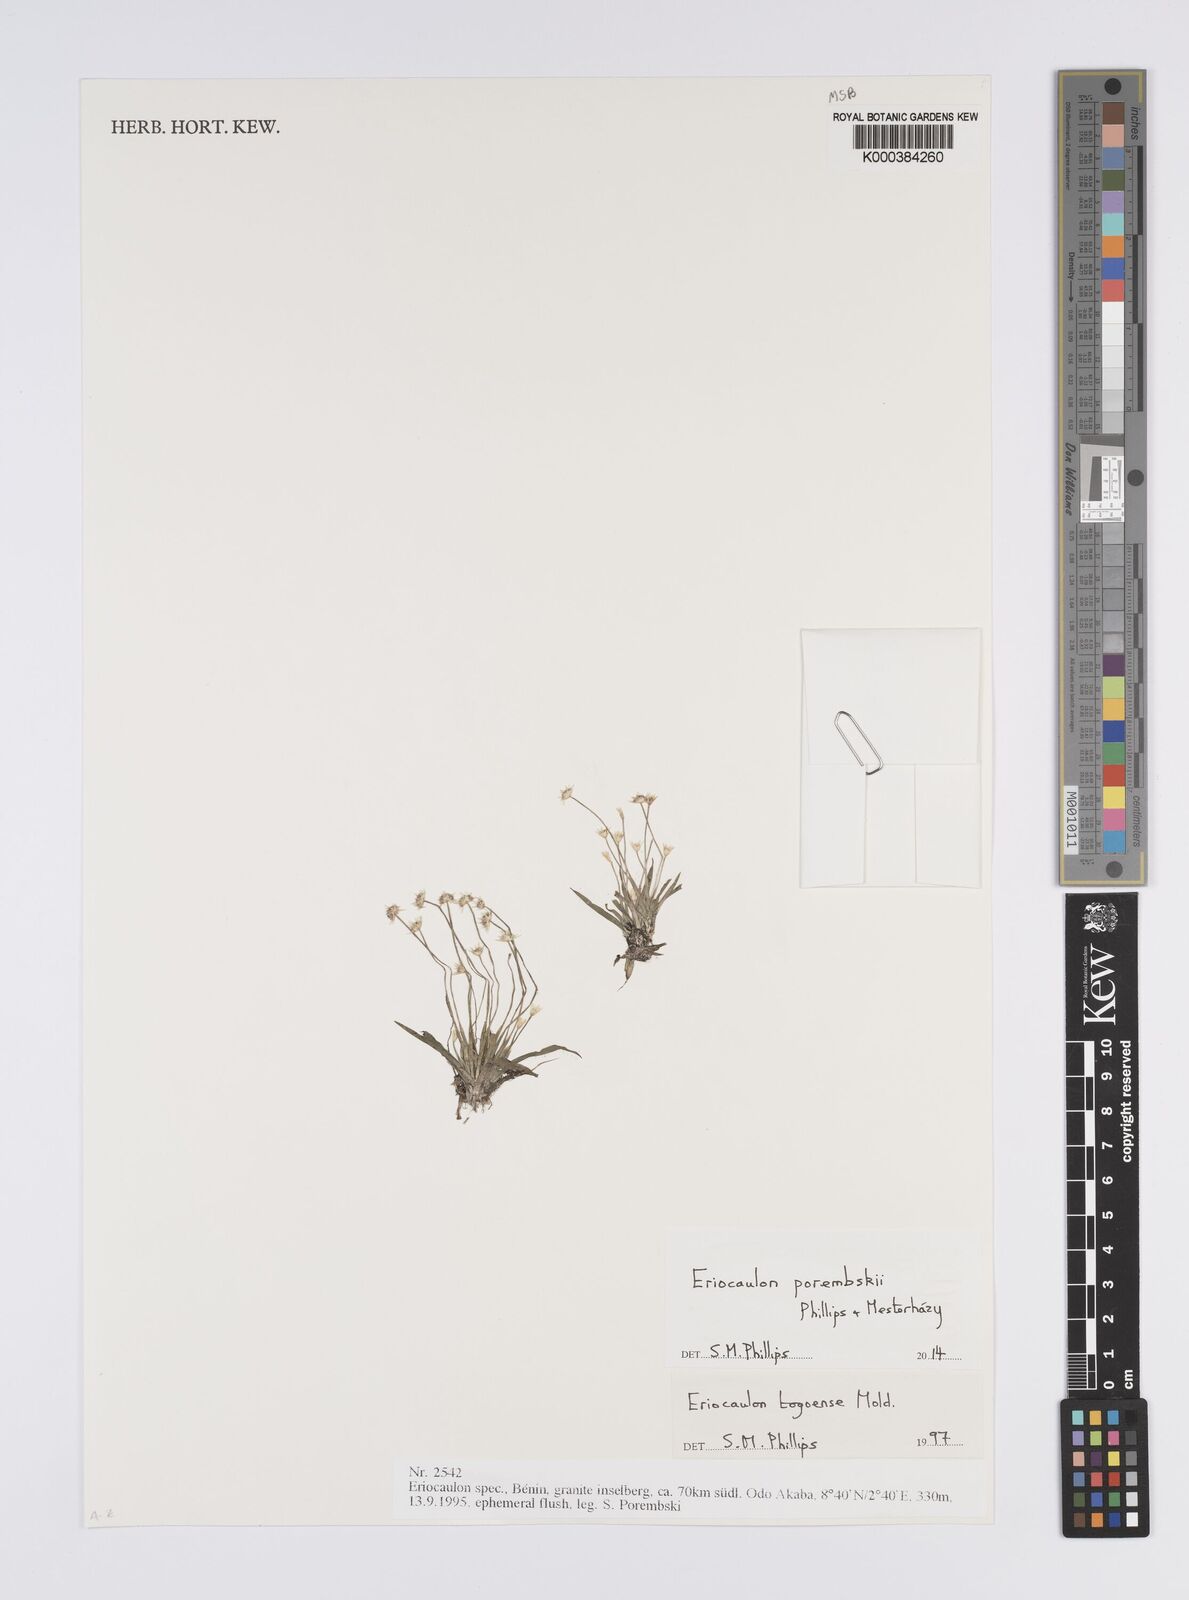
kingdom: Plantae
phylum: Tracheophyta
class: Liliopsida
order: Poales
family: Eriocaulaceae
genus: Eriocaulon
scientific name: Eriocaulon togoense
